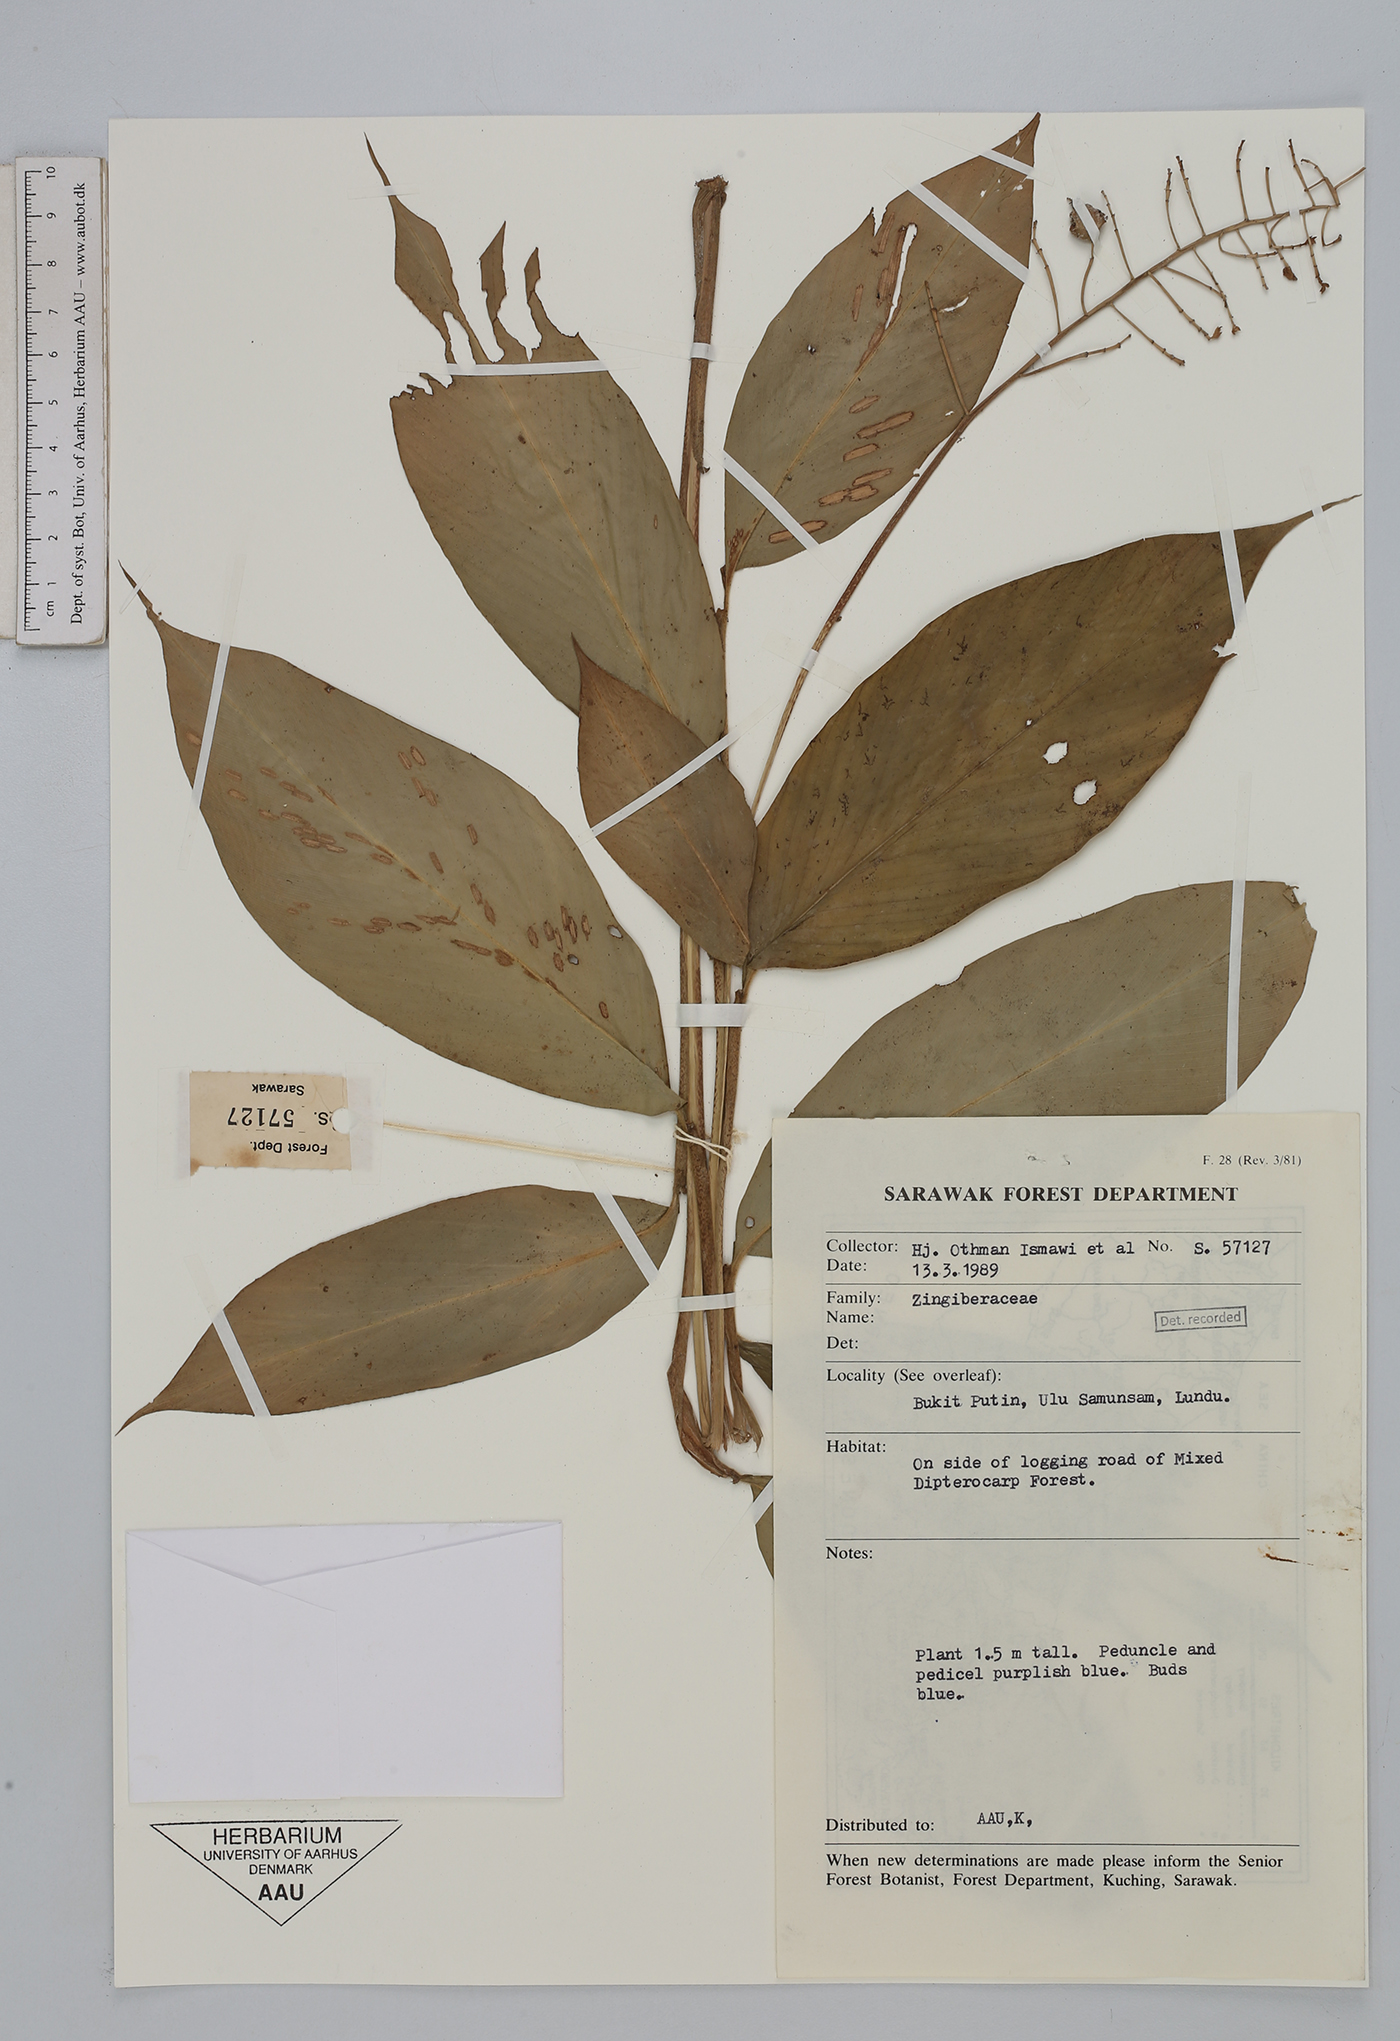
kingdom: Plantae
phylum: Tracheophyta
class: Liliopsida
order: Zingiberales
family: Zingiberaceae
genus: Globba
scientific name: Globba tricolor
